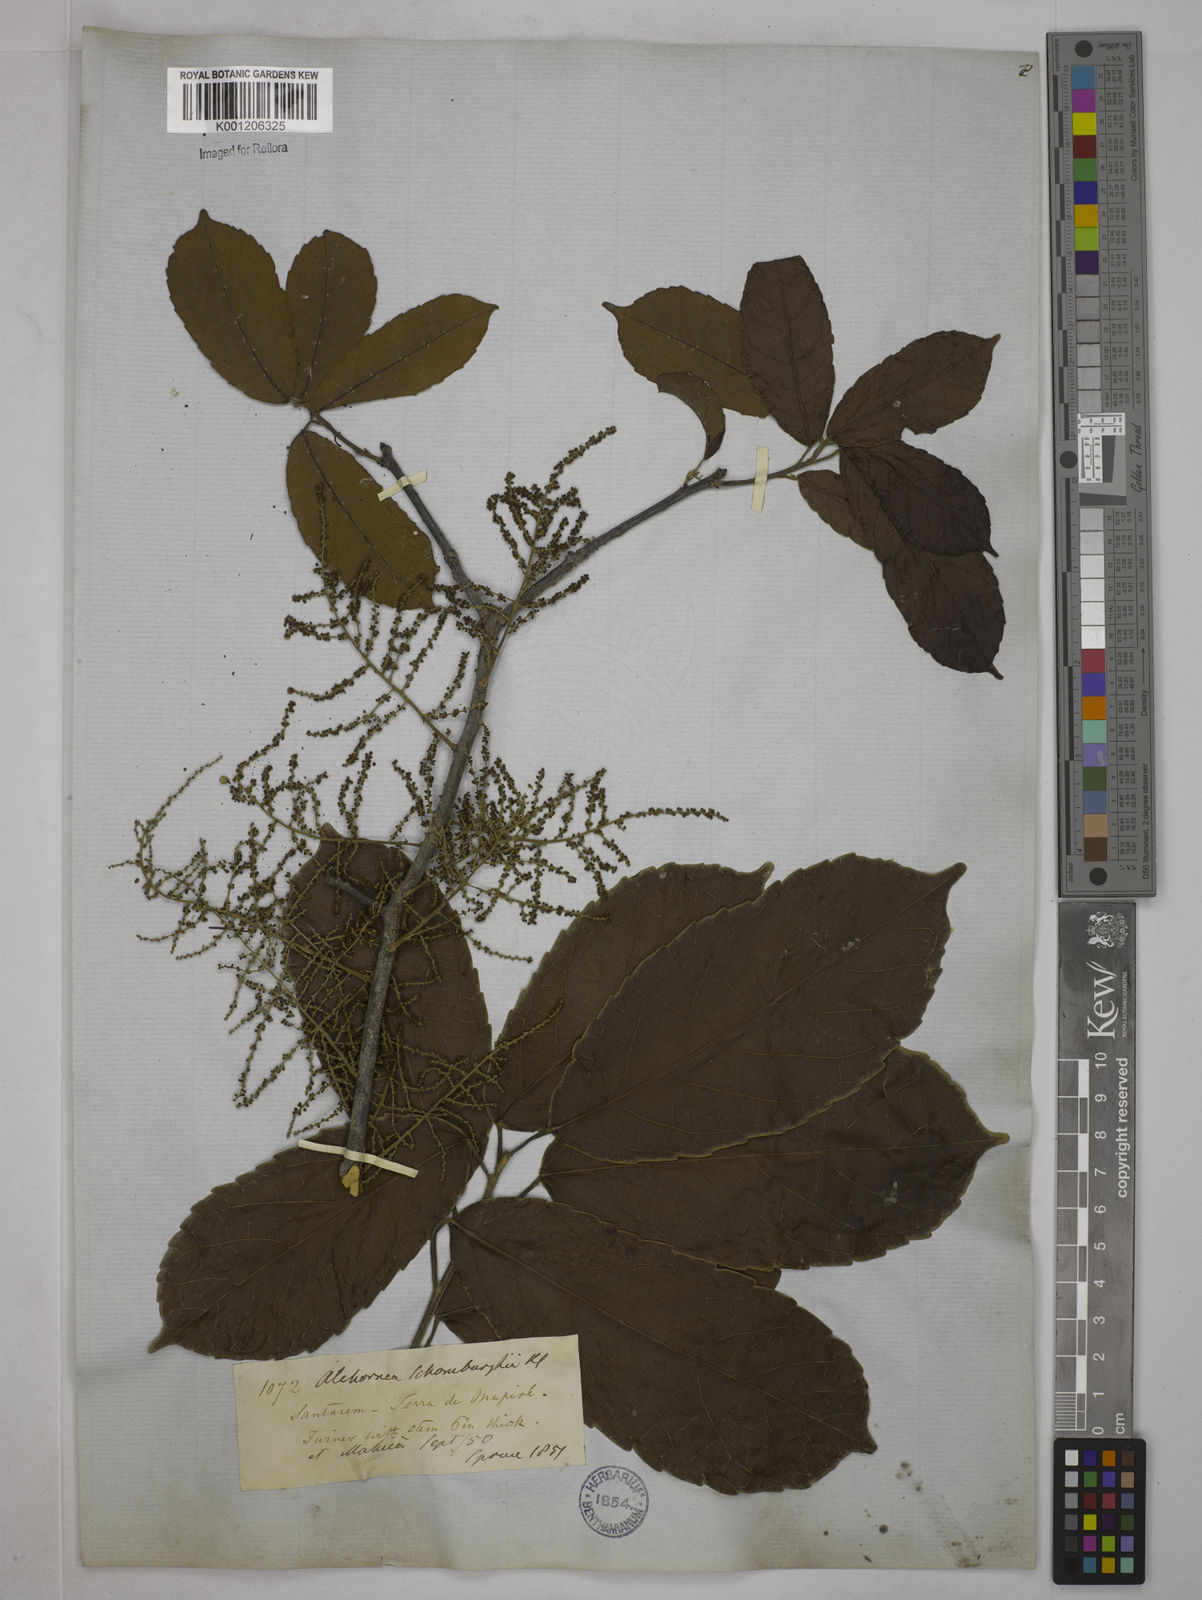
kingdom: Plantae
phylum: Tracheophyta
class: Magnoliopsida
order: Malpighiales
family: Euphorbiaceae
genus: Alchornea
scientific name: Alchornea discolor
